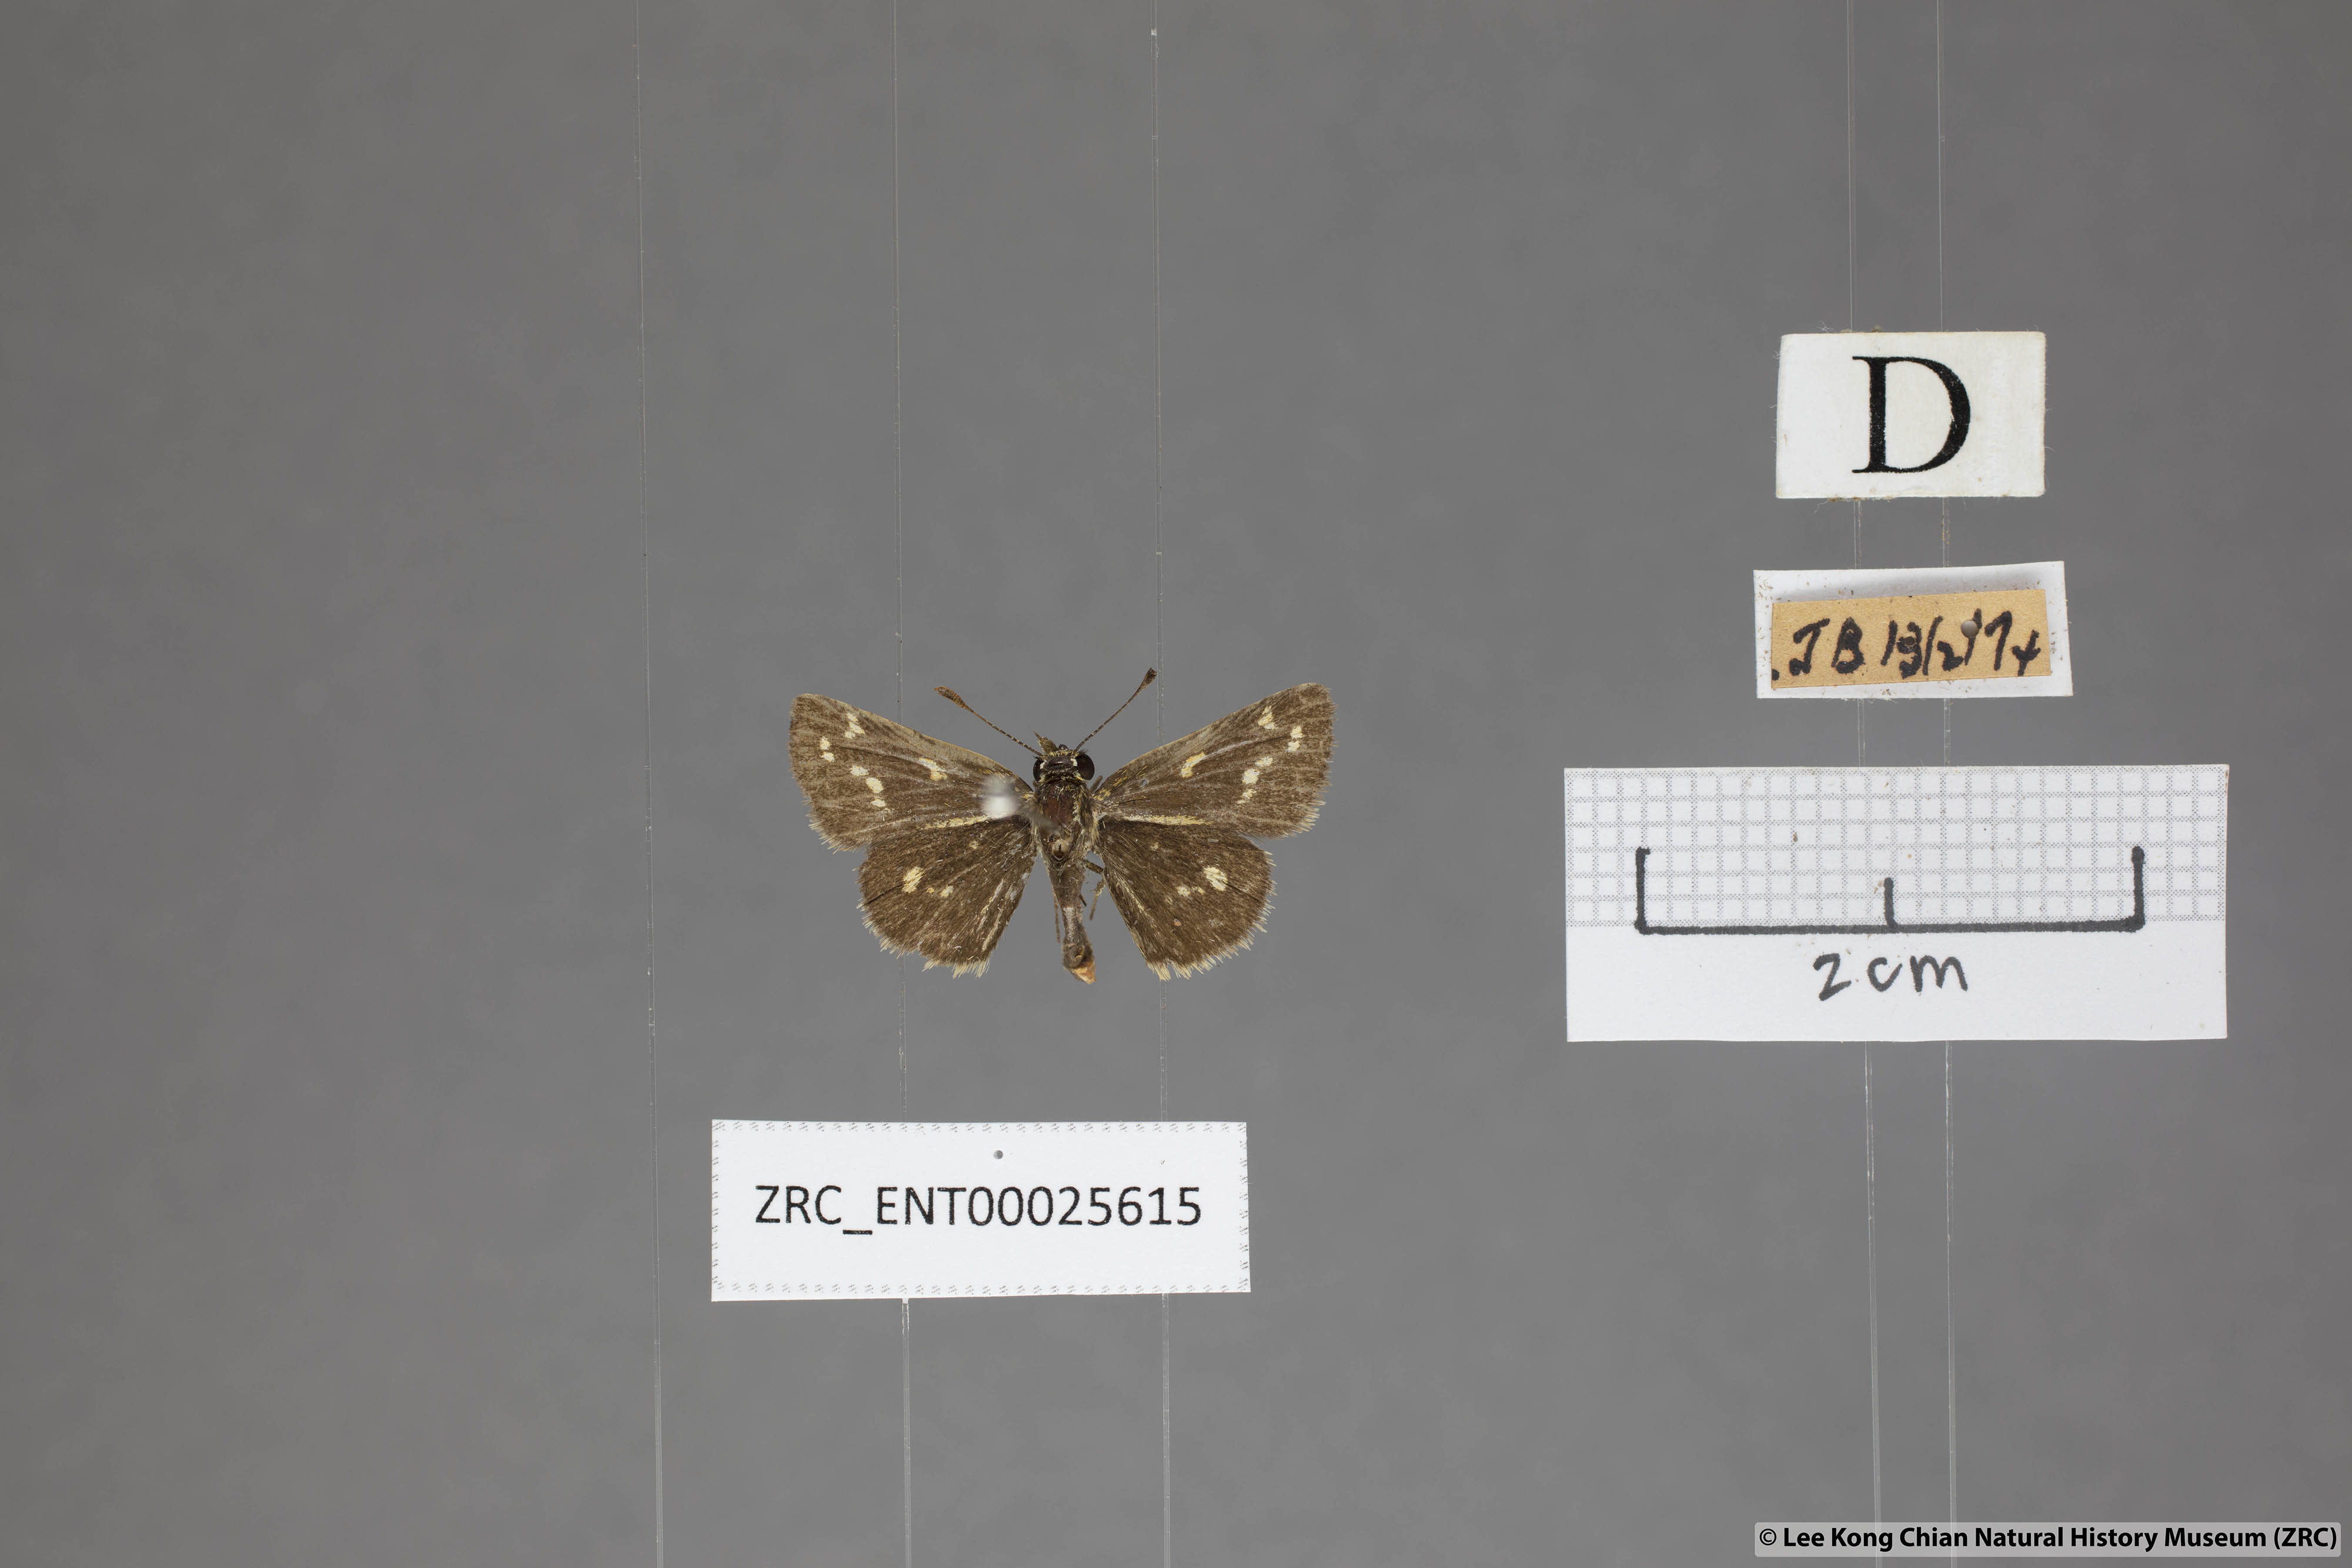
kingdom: Animalia
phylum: Arthropoda
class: Insecta
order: Lepidoptera
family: Hesperiidae
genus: Taractrocera
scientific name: Taractrocera ardonia
